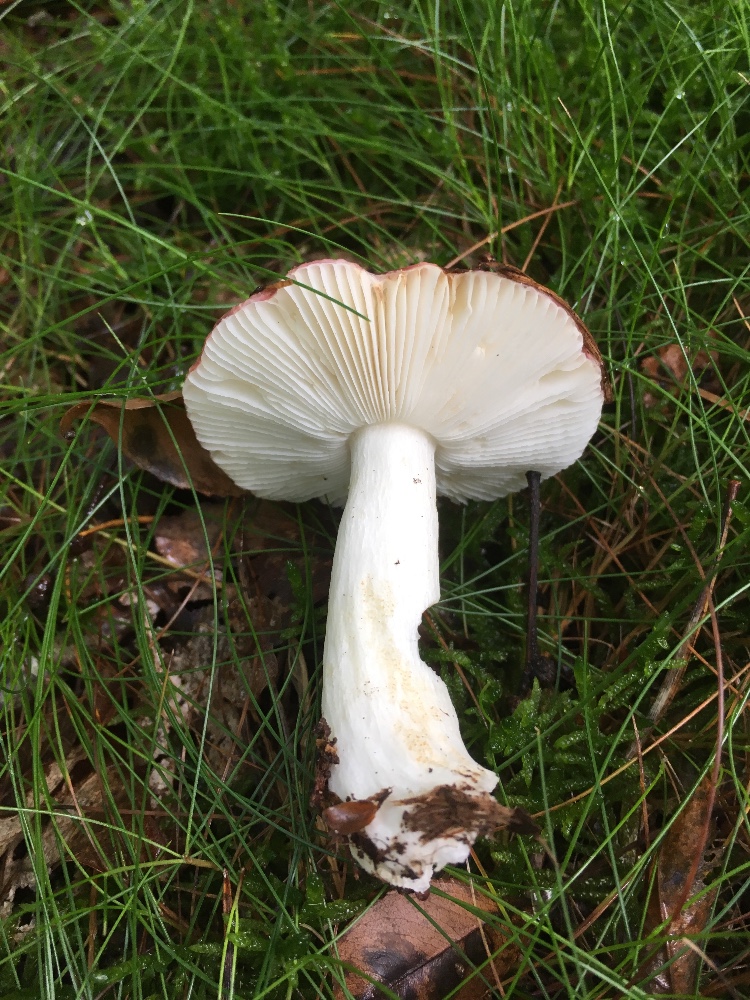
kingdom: Fungi
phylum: Basidiomycota
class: Agaricomycetes
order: Russulales
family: Russulaceae
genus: Russula
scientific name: Russula fragilis
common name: savbladet skørhat
